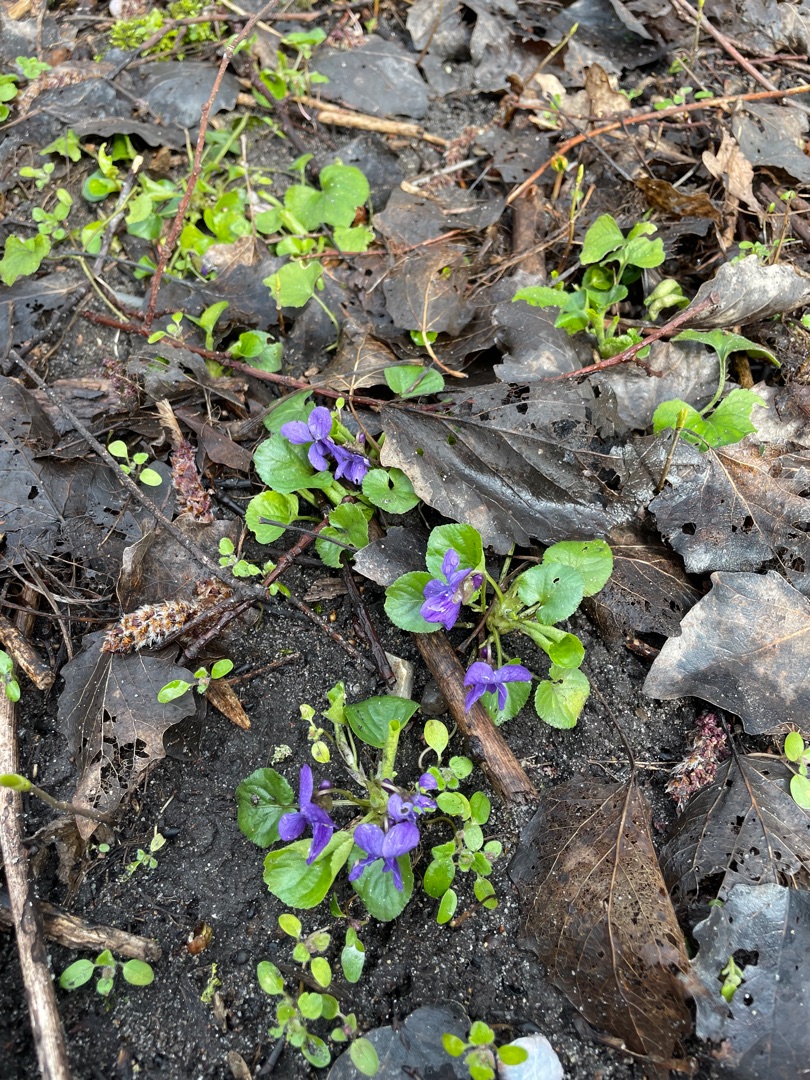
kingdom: Plantae
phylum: Tracheophyta
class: Magnoliopsida
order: Malpighiales
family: Violaceae
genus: Viola
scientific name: Viola odorata
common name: Marts-viol
